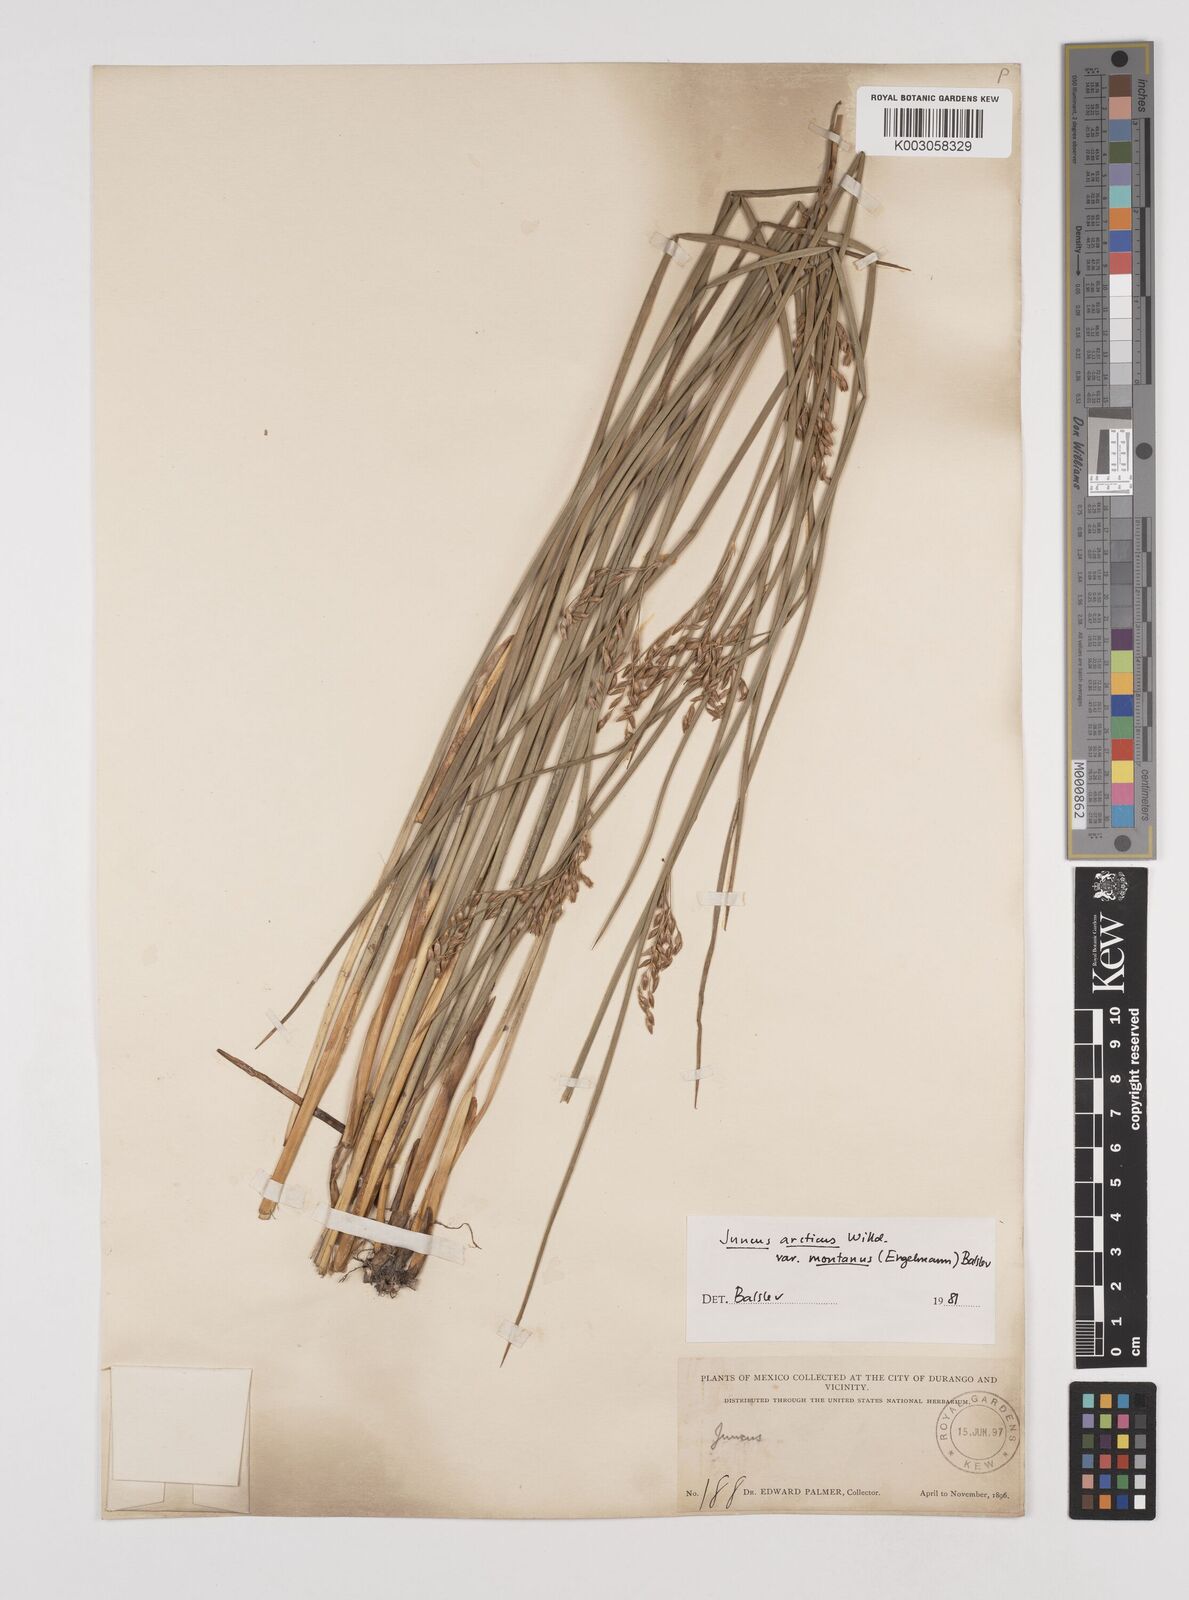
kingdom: Plantae
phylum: Tracheophyta
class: Liliopsida
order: Poales
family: Juncaceae
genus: Juncus
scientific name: Juncus arcticus
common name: Arctic rush
